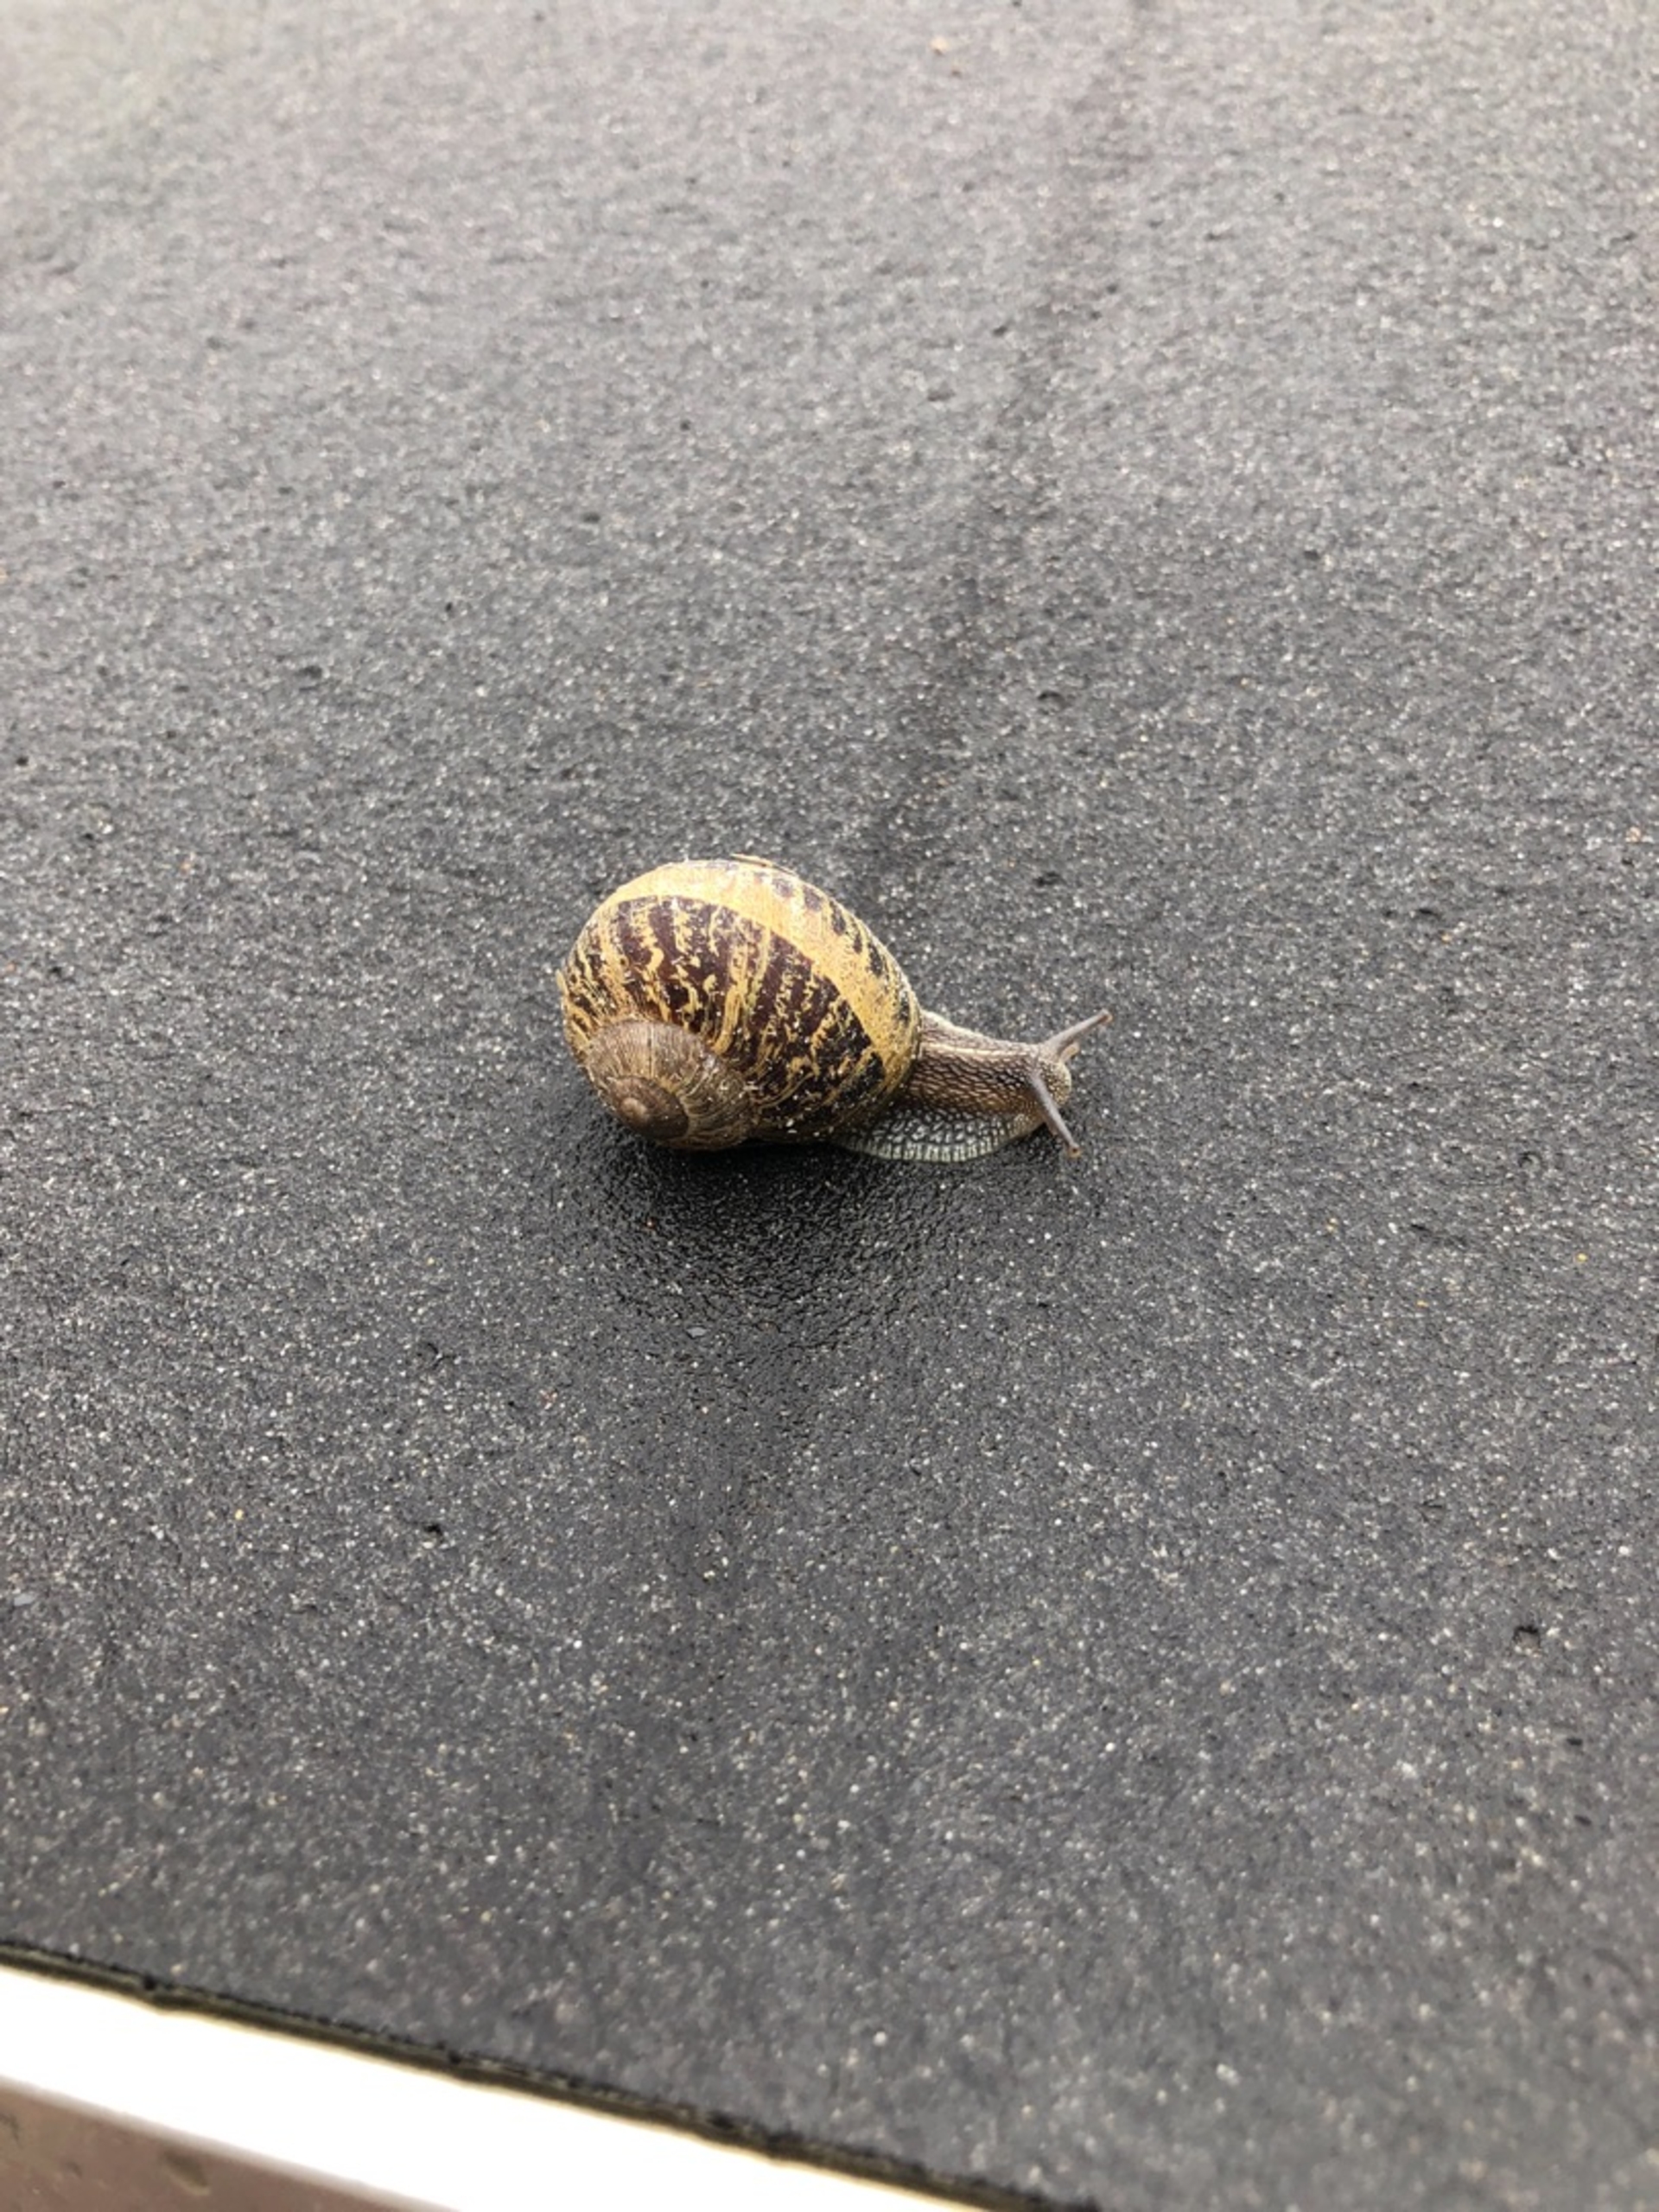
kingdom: Animalia
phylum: Mollusca
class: Gastropoda
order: Stylommatophora
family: Helicidae
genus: Cornu
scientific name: Cornu aspersum
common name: Plettet voldsnegl
